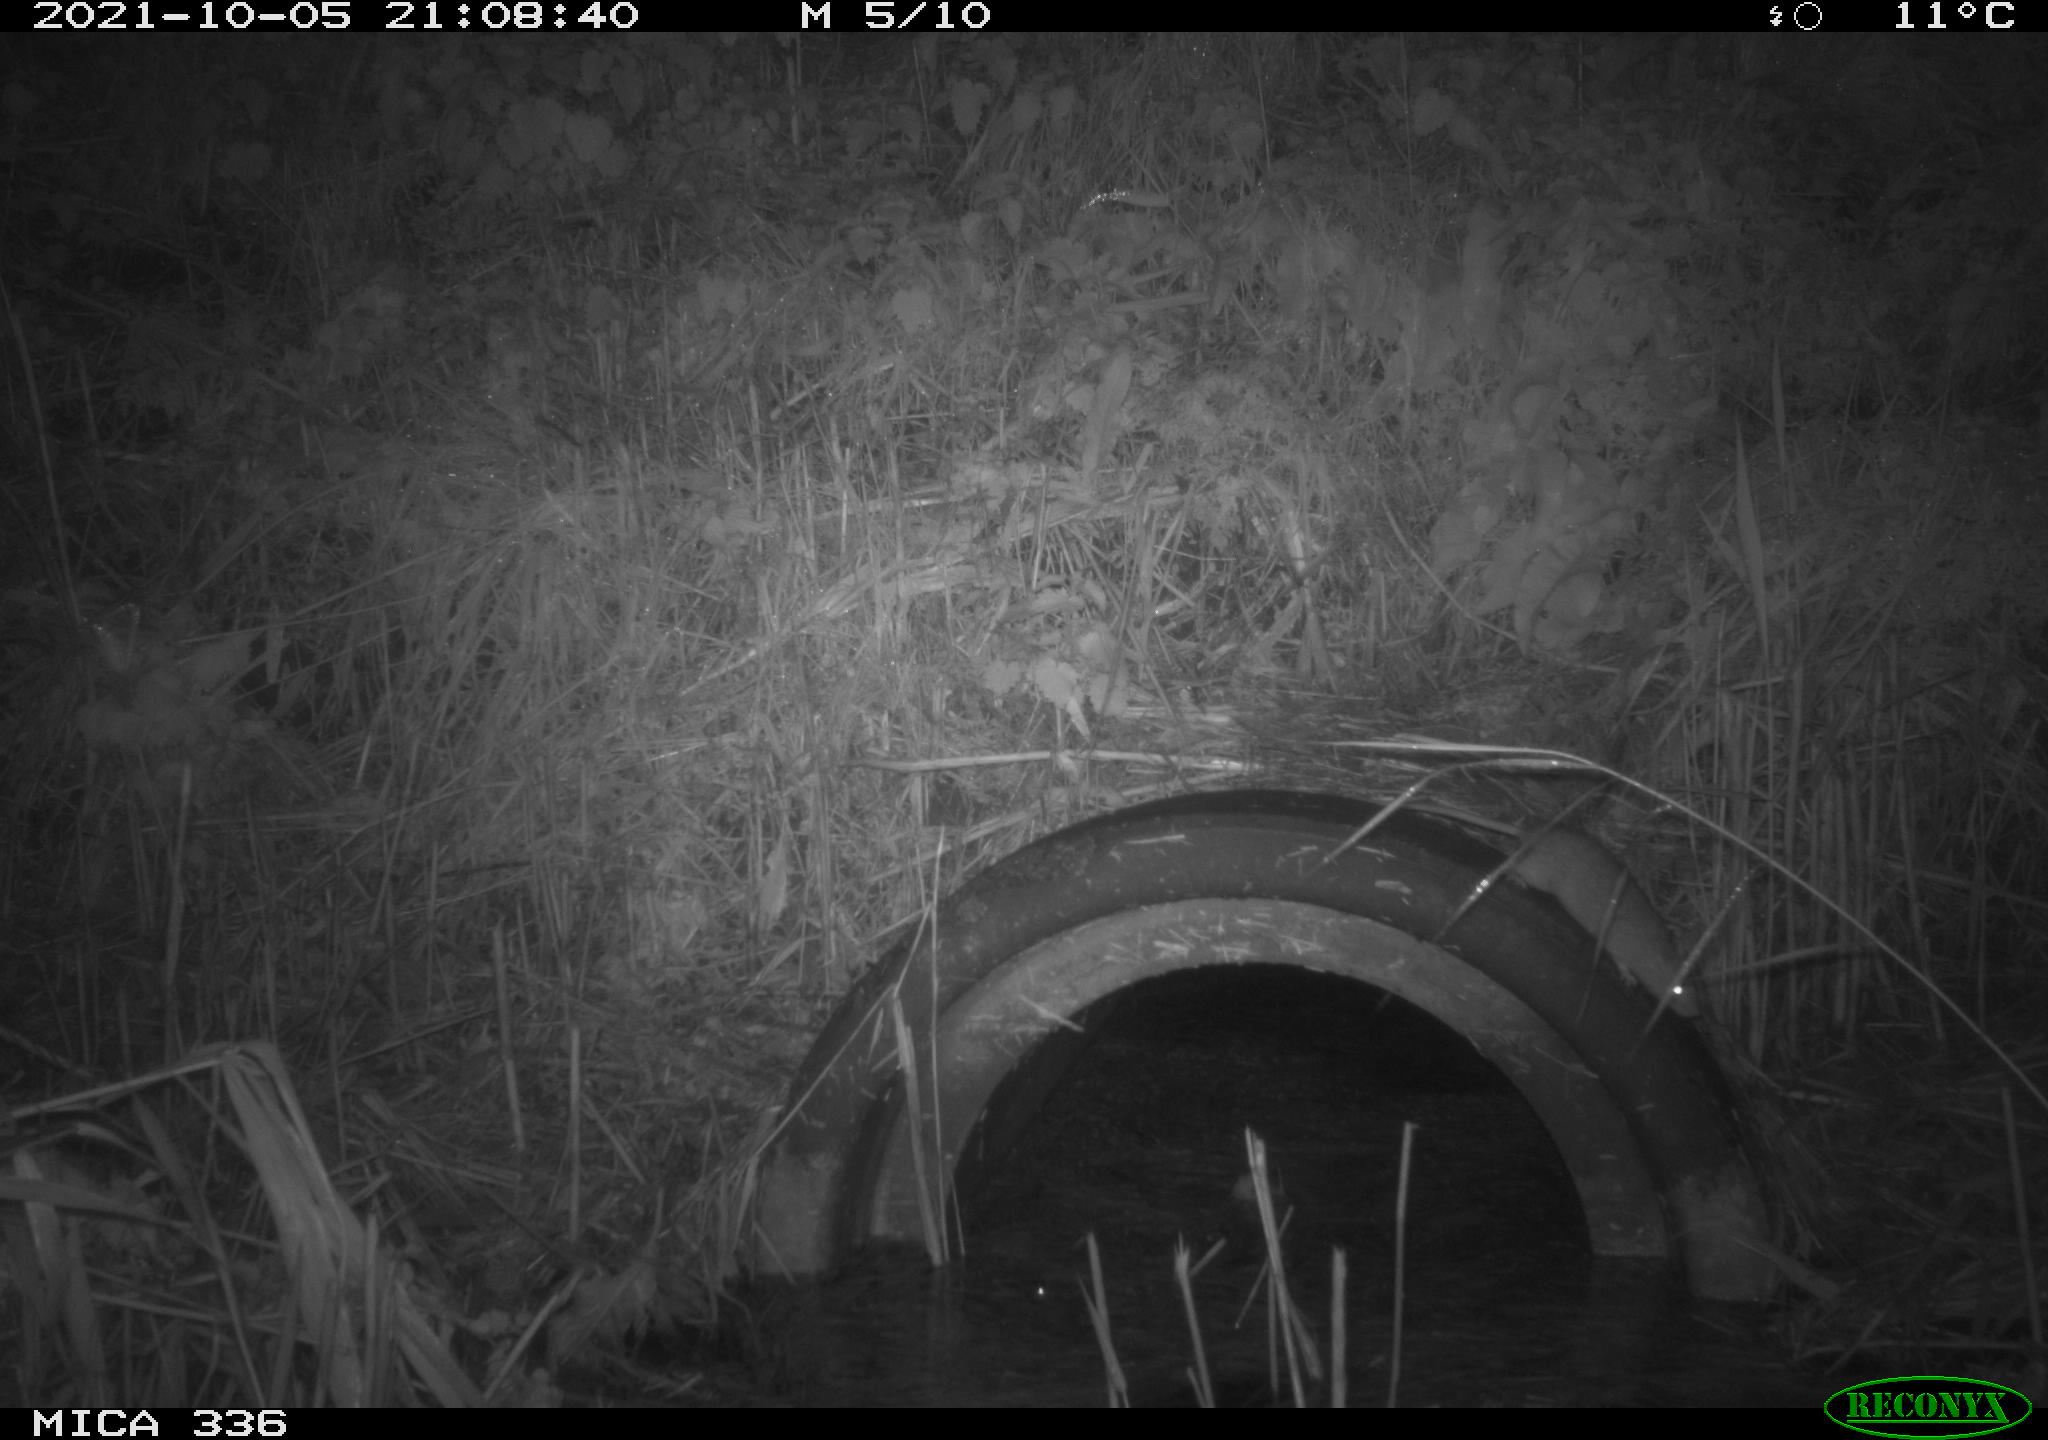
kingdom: Animalia
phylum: Chordata
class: Mammalia
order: Rodentia
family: Muridae
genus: Rattus
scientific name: Rattus norvegicus
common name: Brown rat
